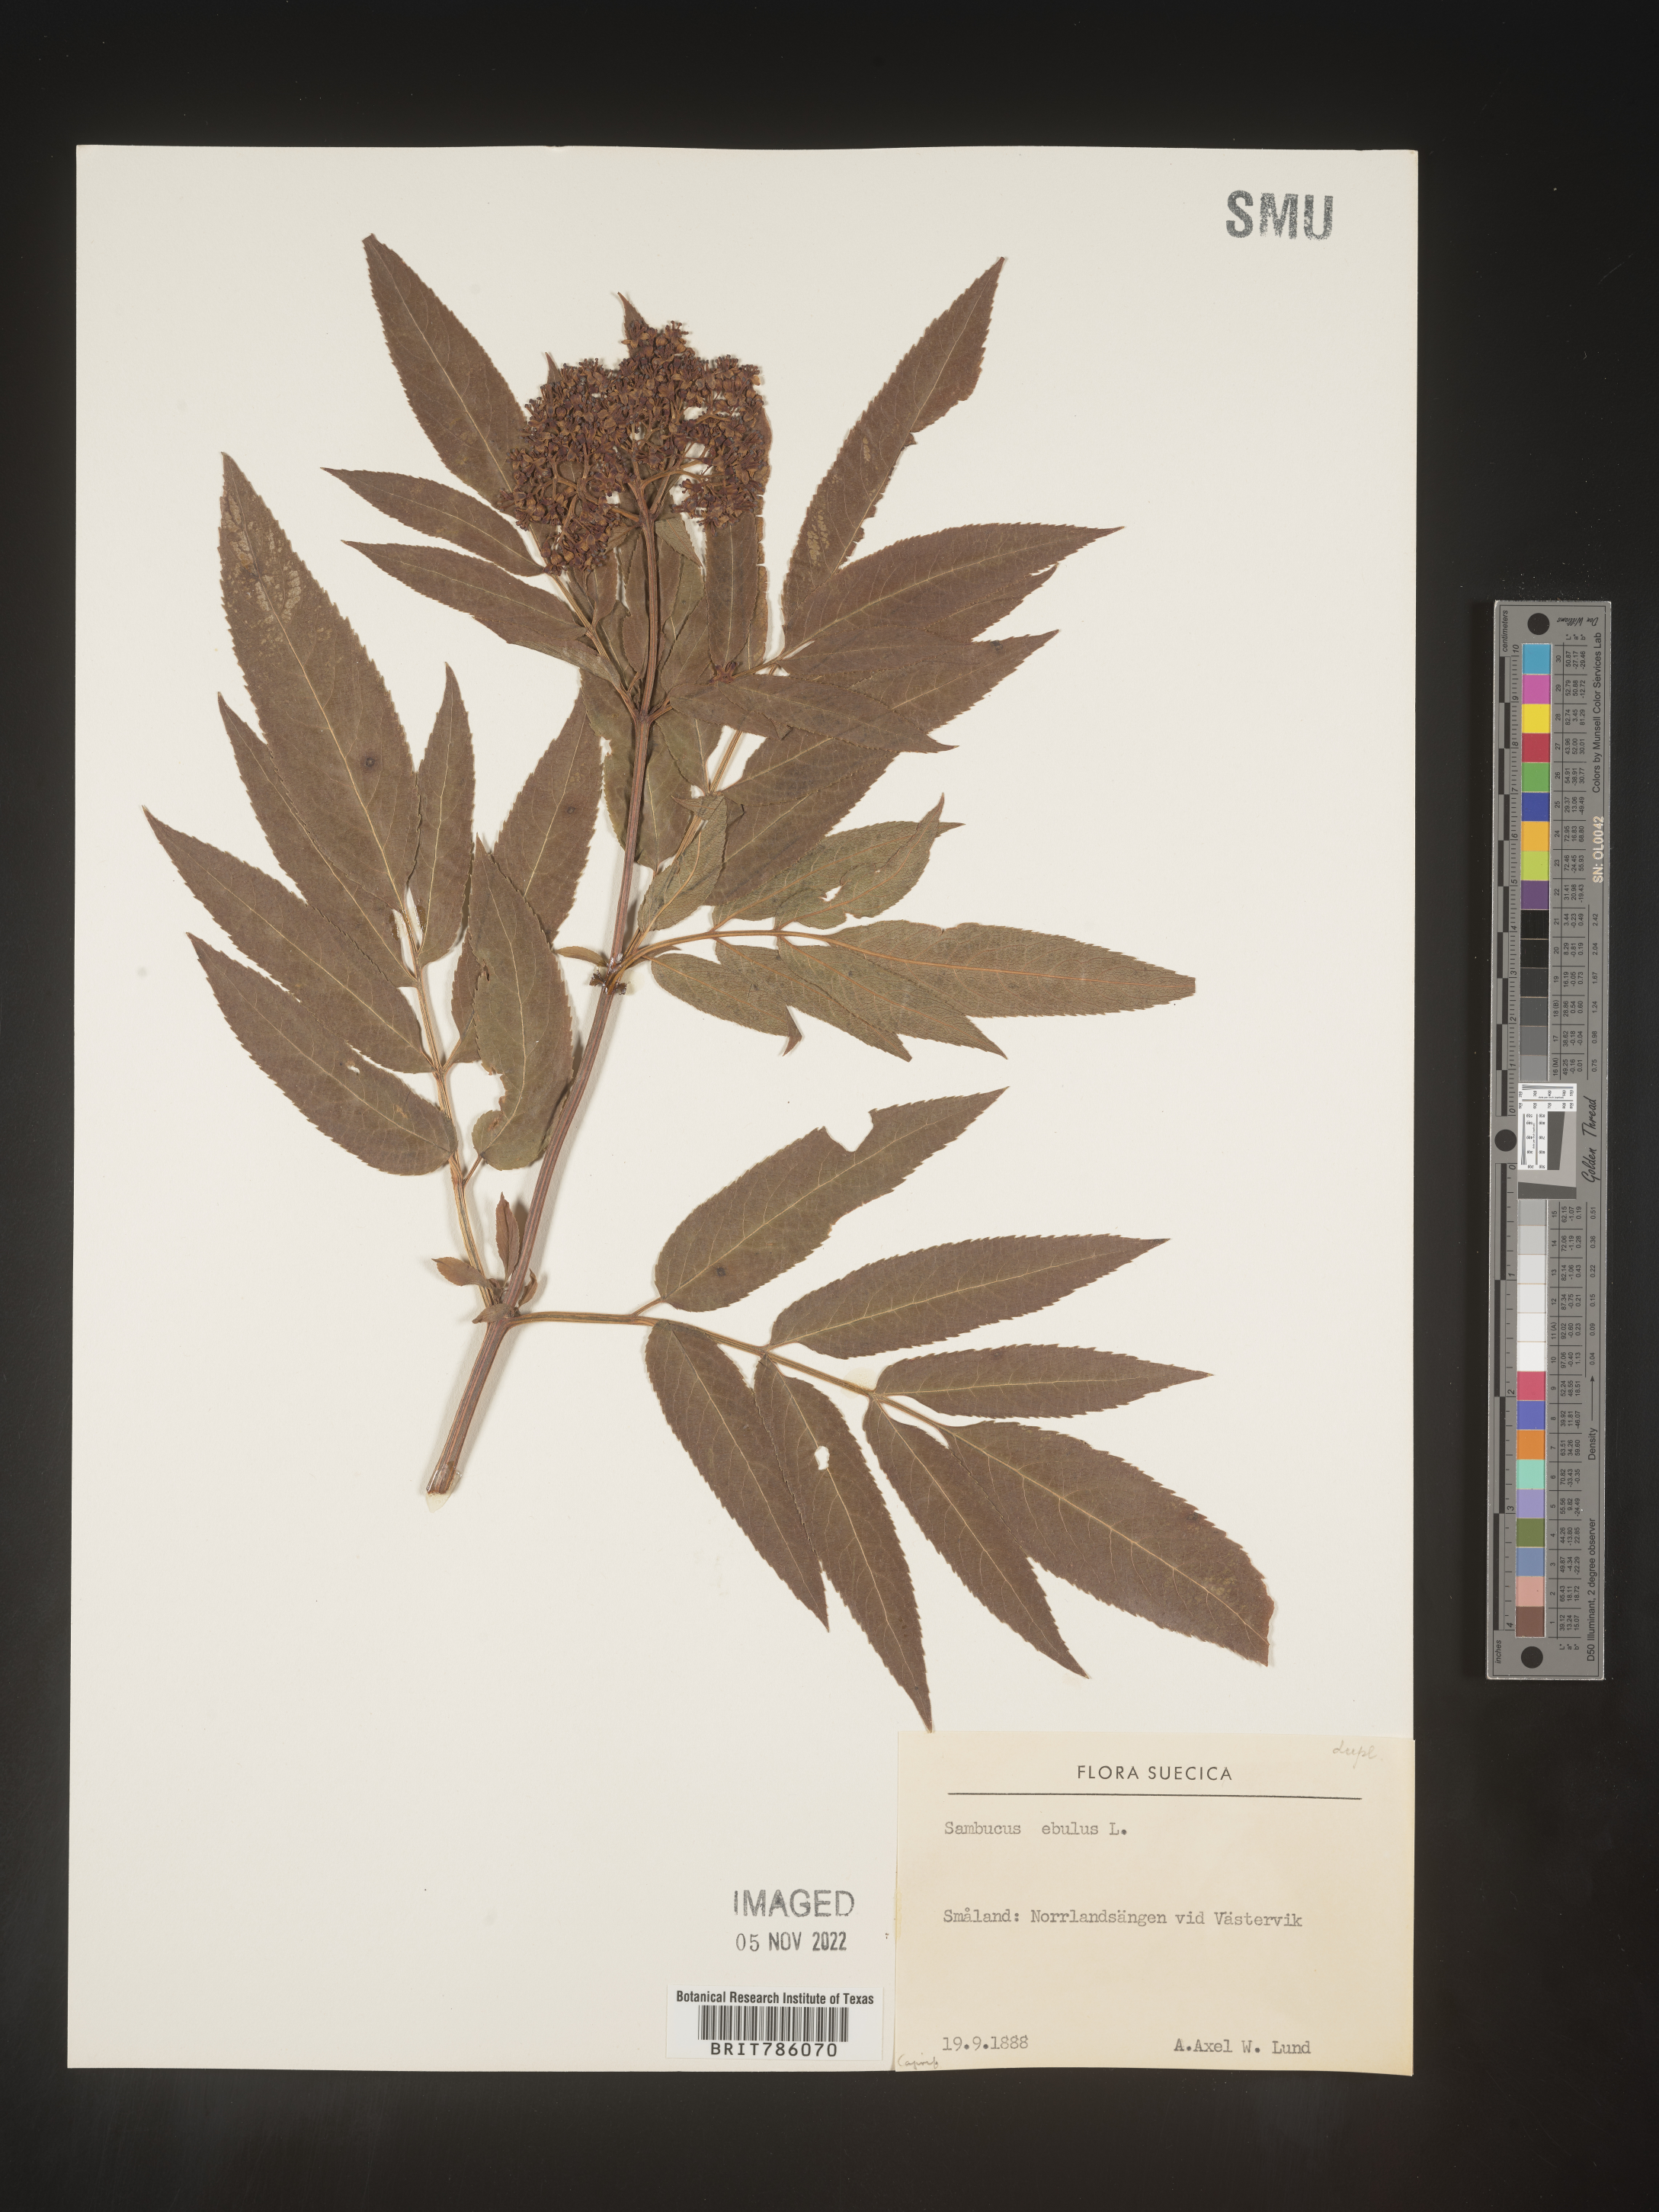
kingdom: Plantae
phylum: Tracheophyta
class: Magnoliopsida
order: Dipsacales
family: Viburnaceae
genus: Sambucus
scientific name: Sambucus
